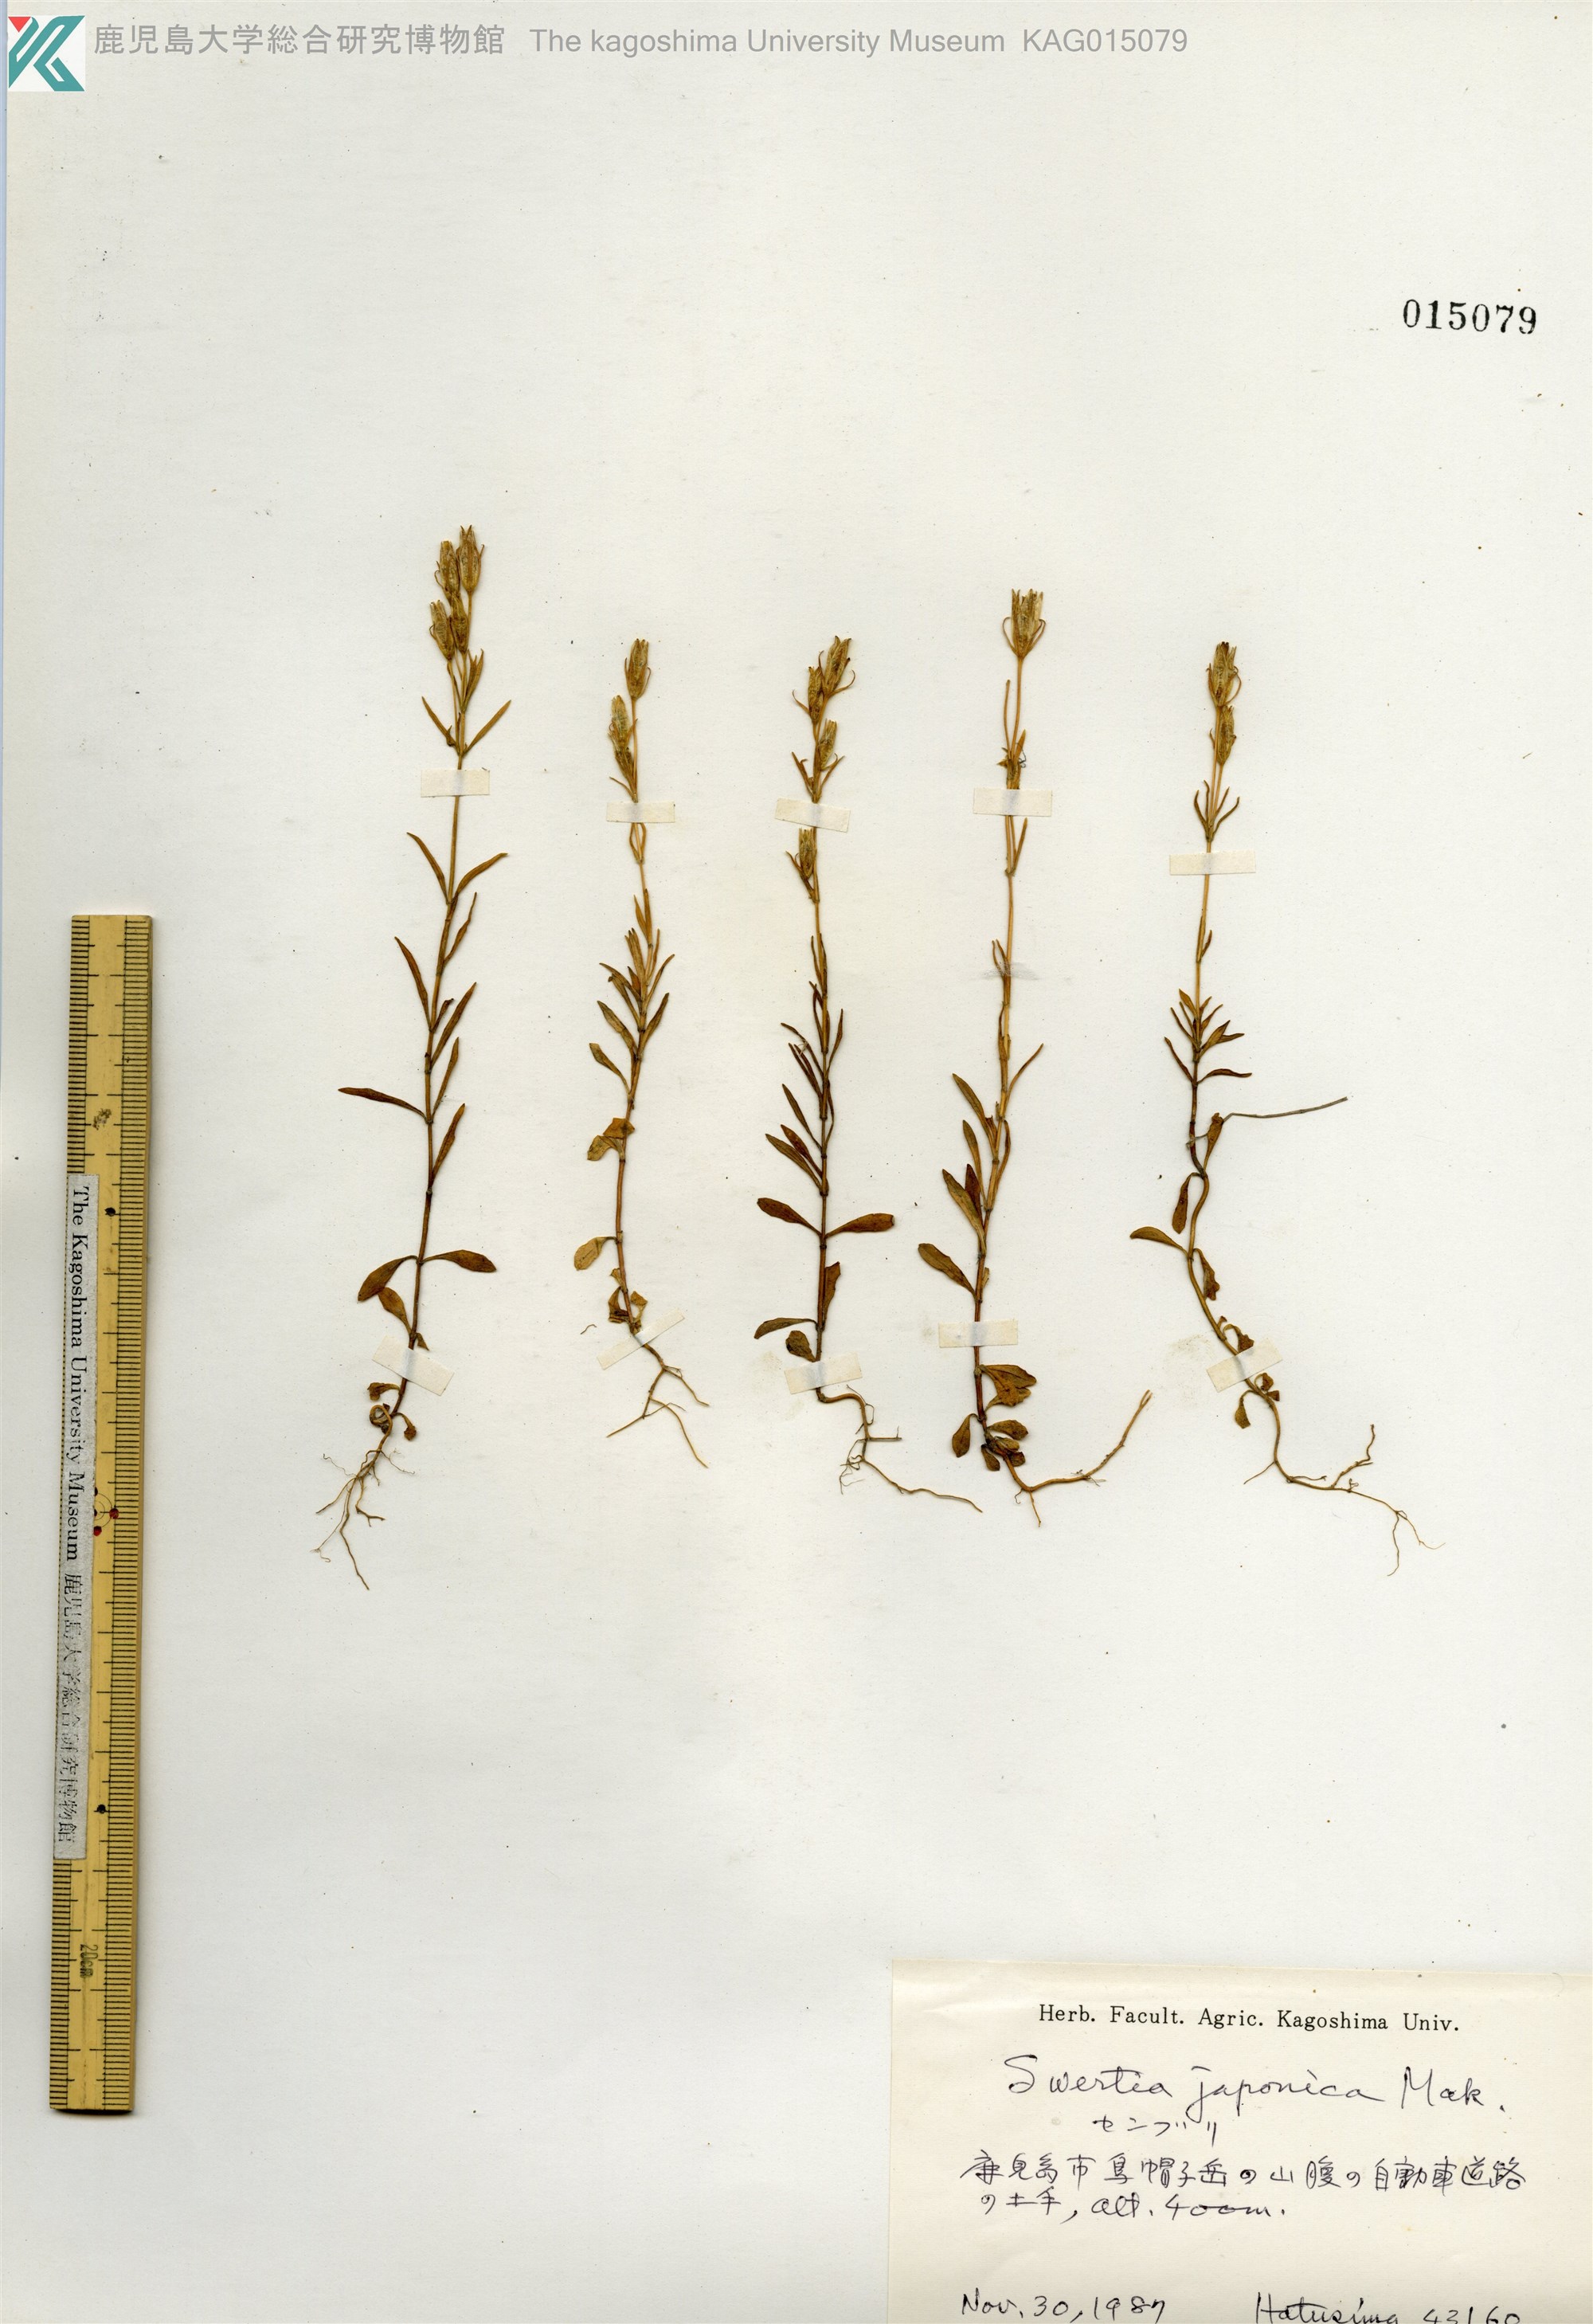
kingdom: Plantae
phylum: Tracheophyta
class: Magnoliopsida
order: Gentianales
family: Gentianaceae
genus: Swertia
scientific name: Swertia japonica
